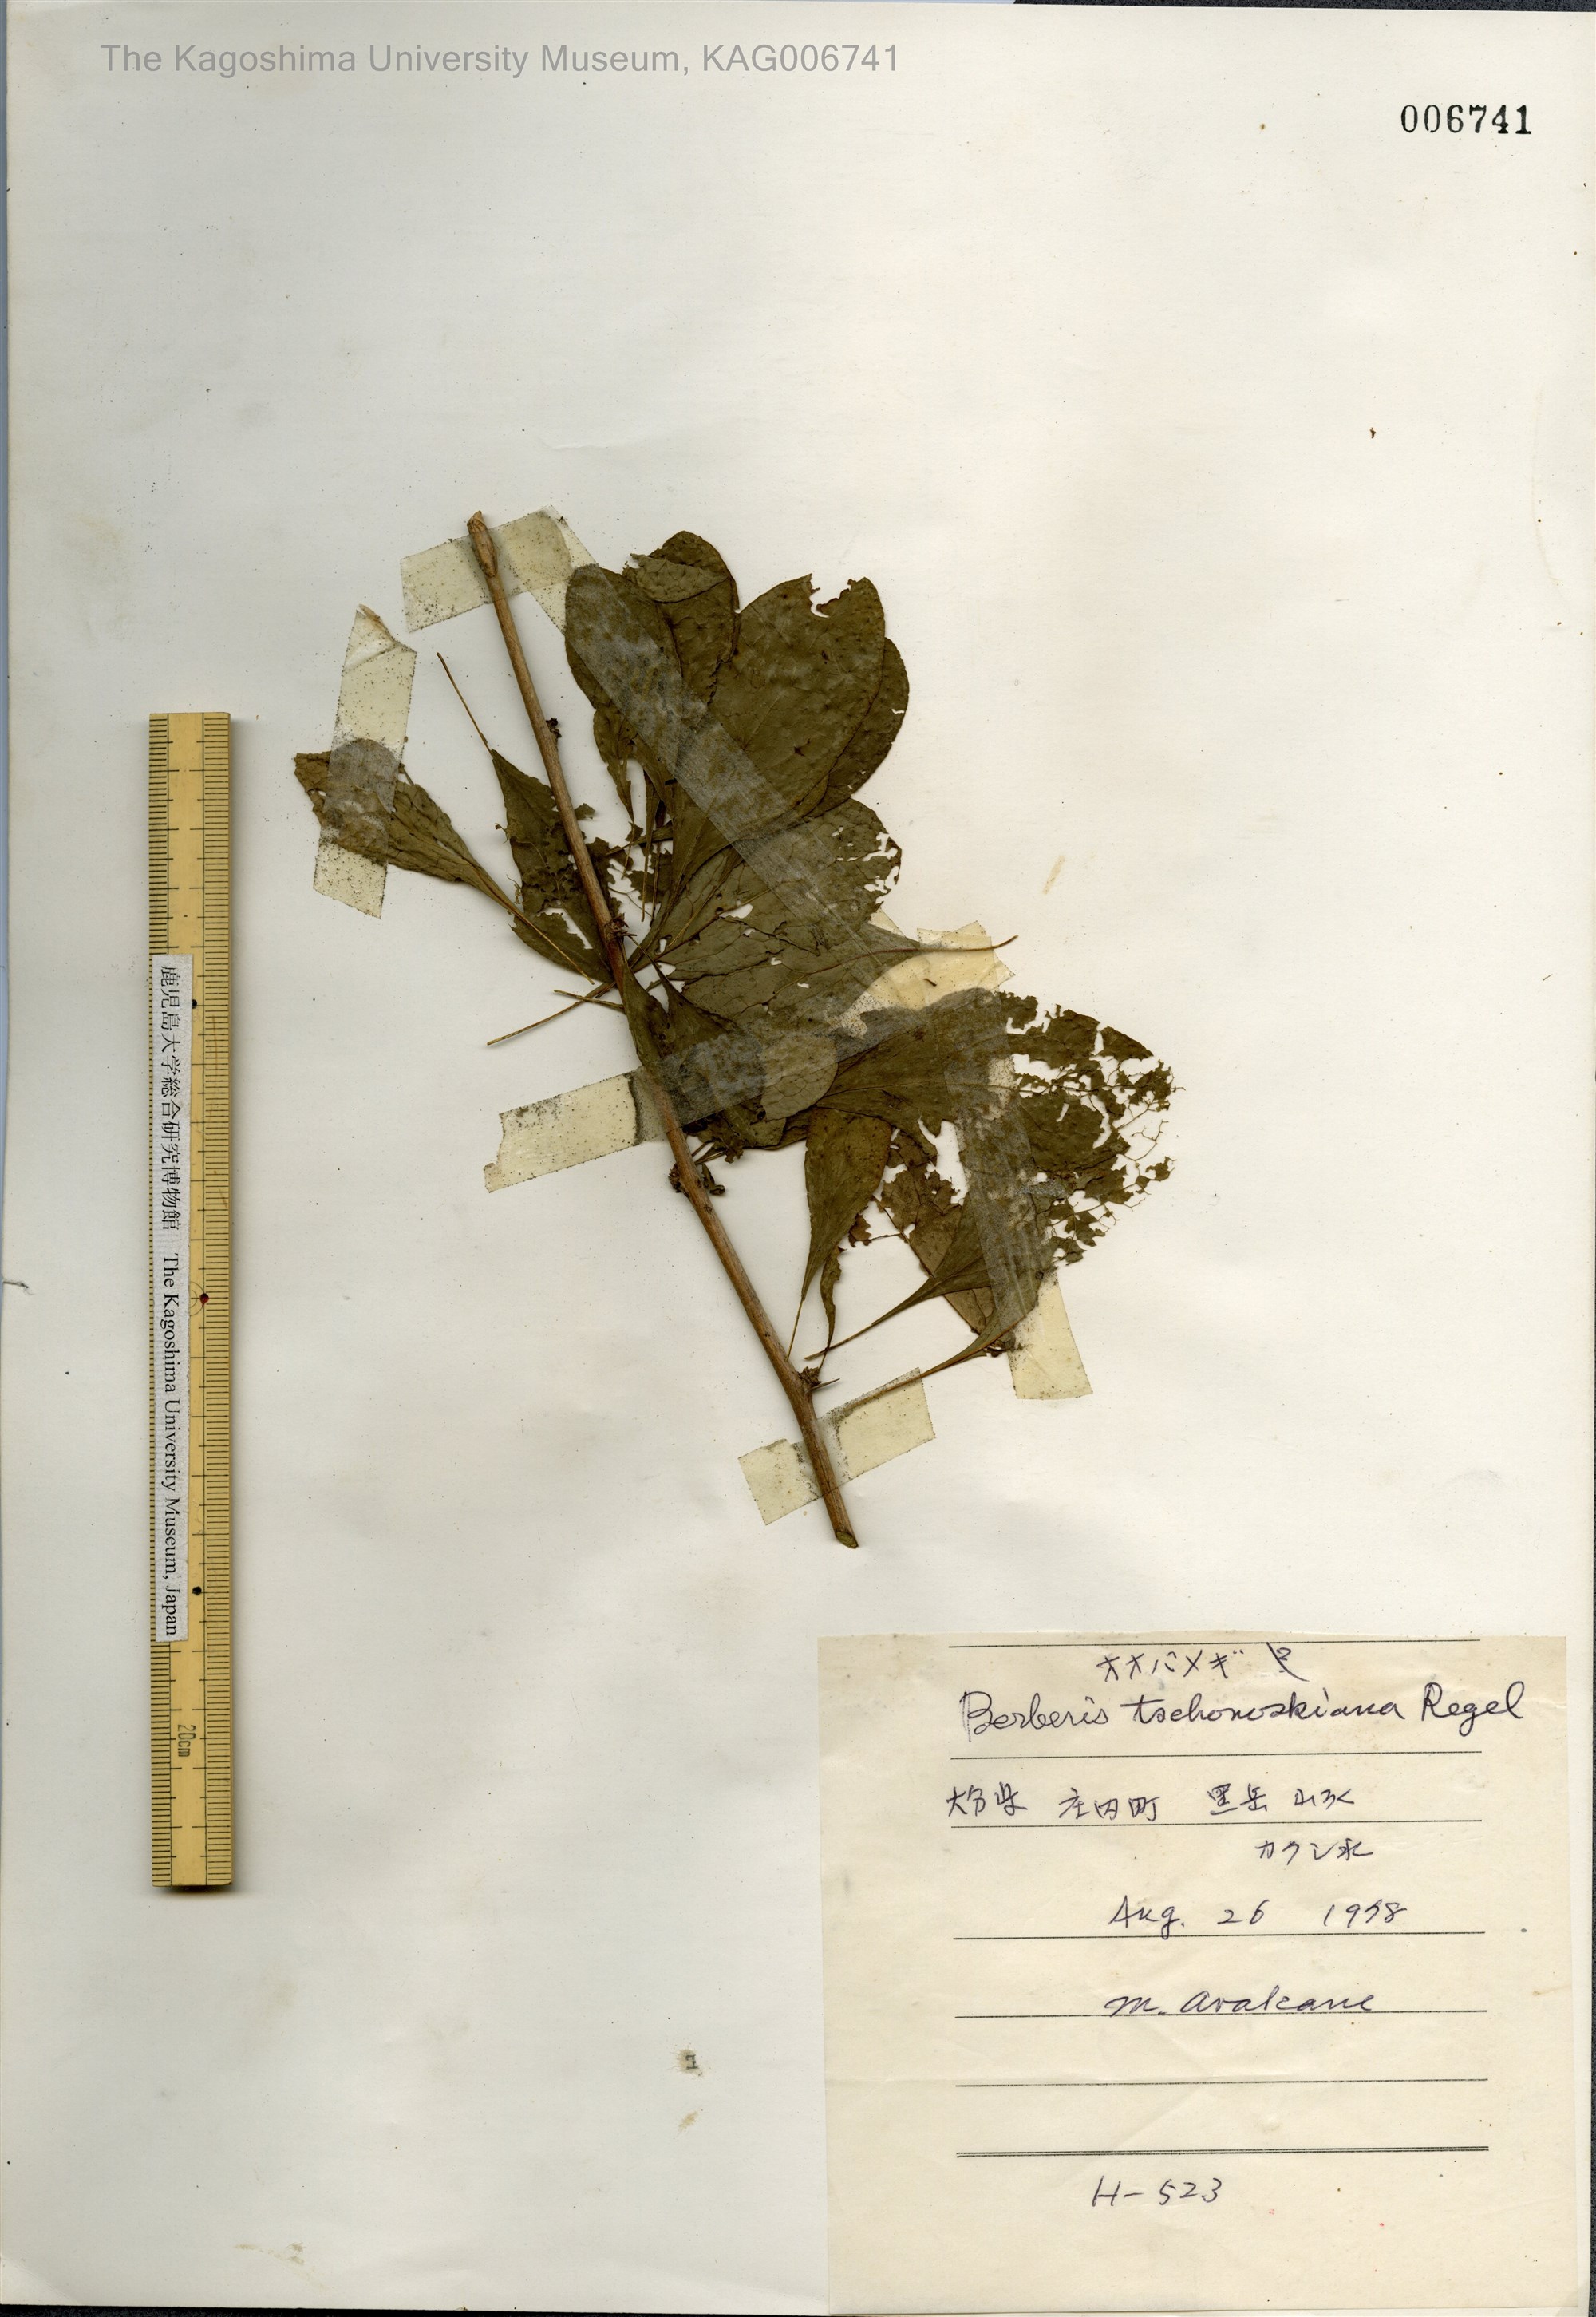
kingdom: Plantae
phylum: Tracheophyta
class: Magnoliopsida
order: Ranunculales
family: Berberidaceae
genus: Berberis
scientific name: Berberis tschonoskyana
